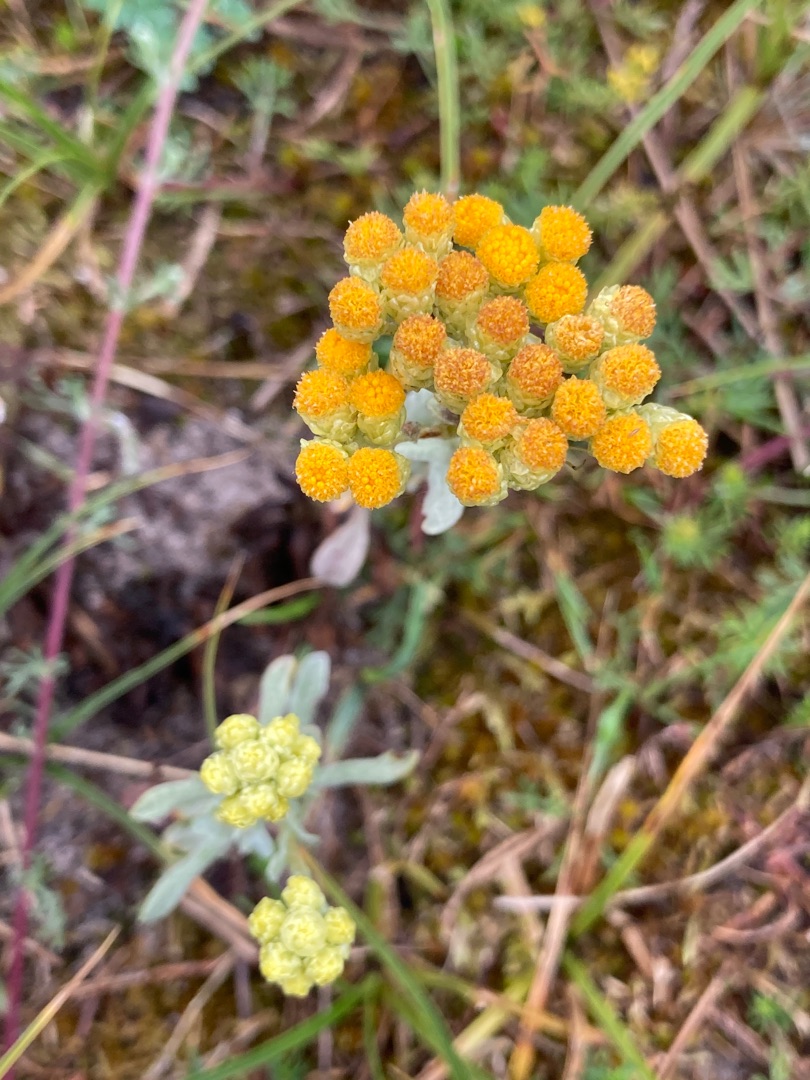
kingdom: Plantae
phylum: Tracheophyta
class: Magnoliopsida
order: Asterales
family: Asteraceae
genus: Helichrysum
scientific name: Helichrysum arenarium
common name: Gul evighedsblomst
